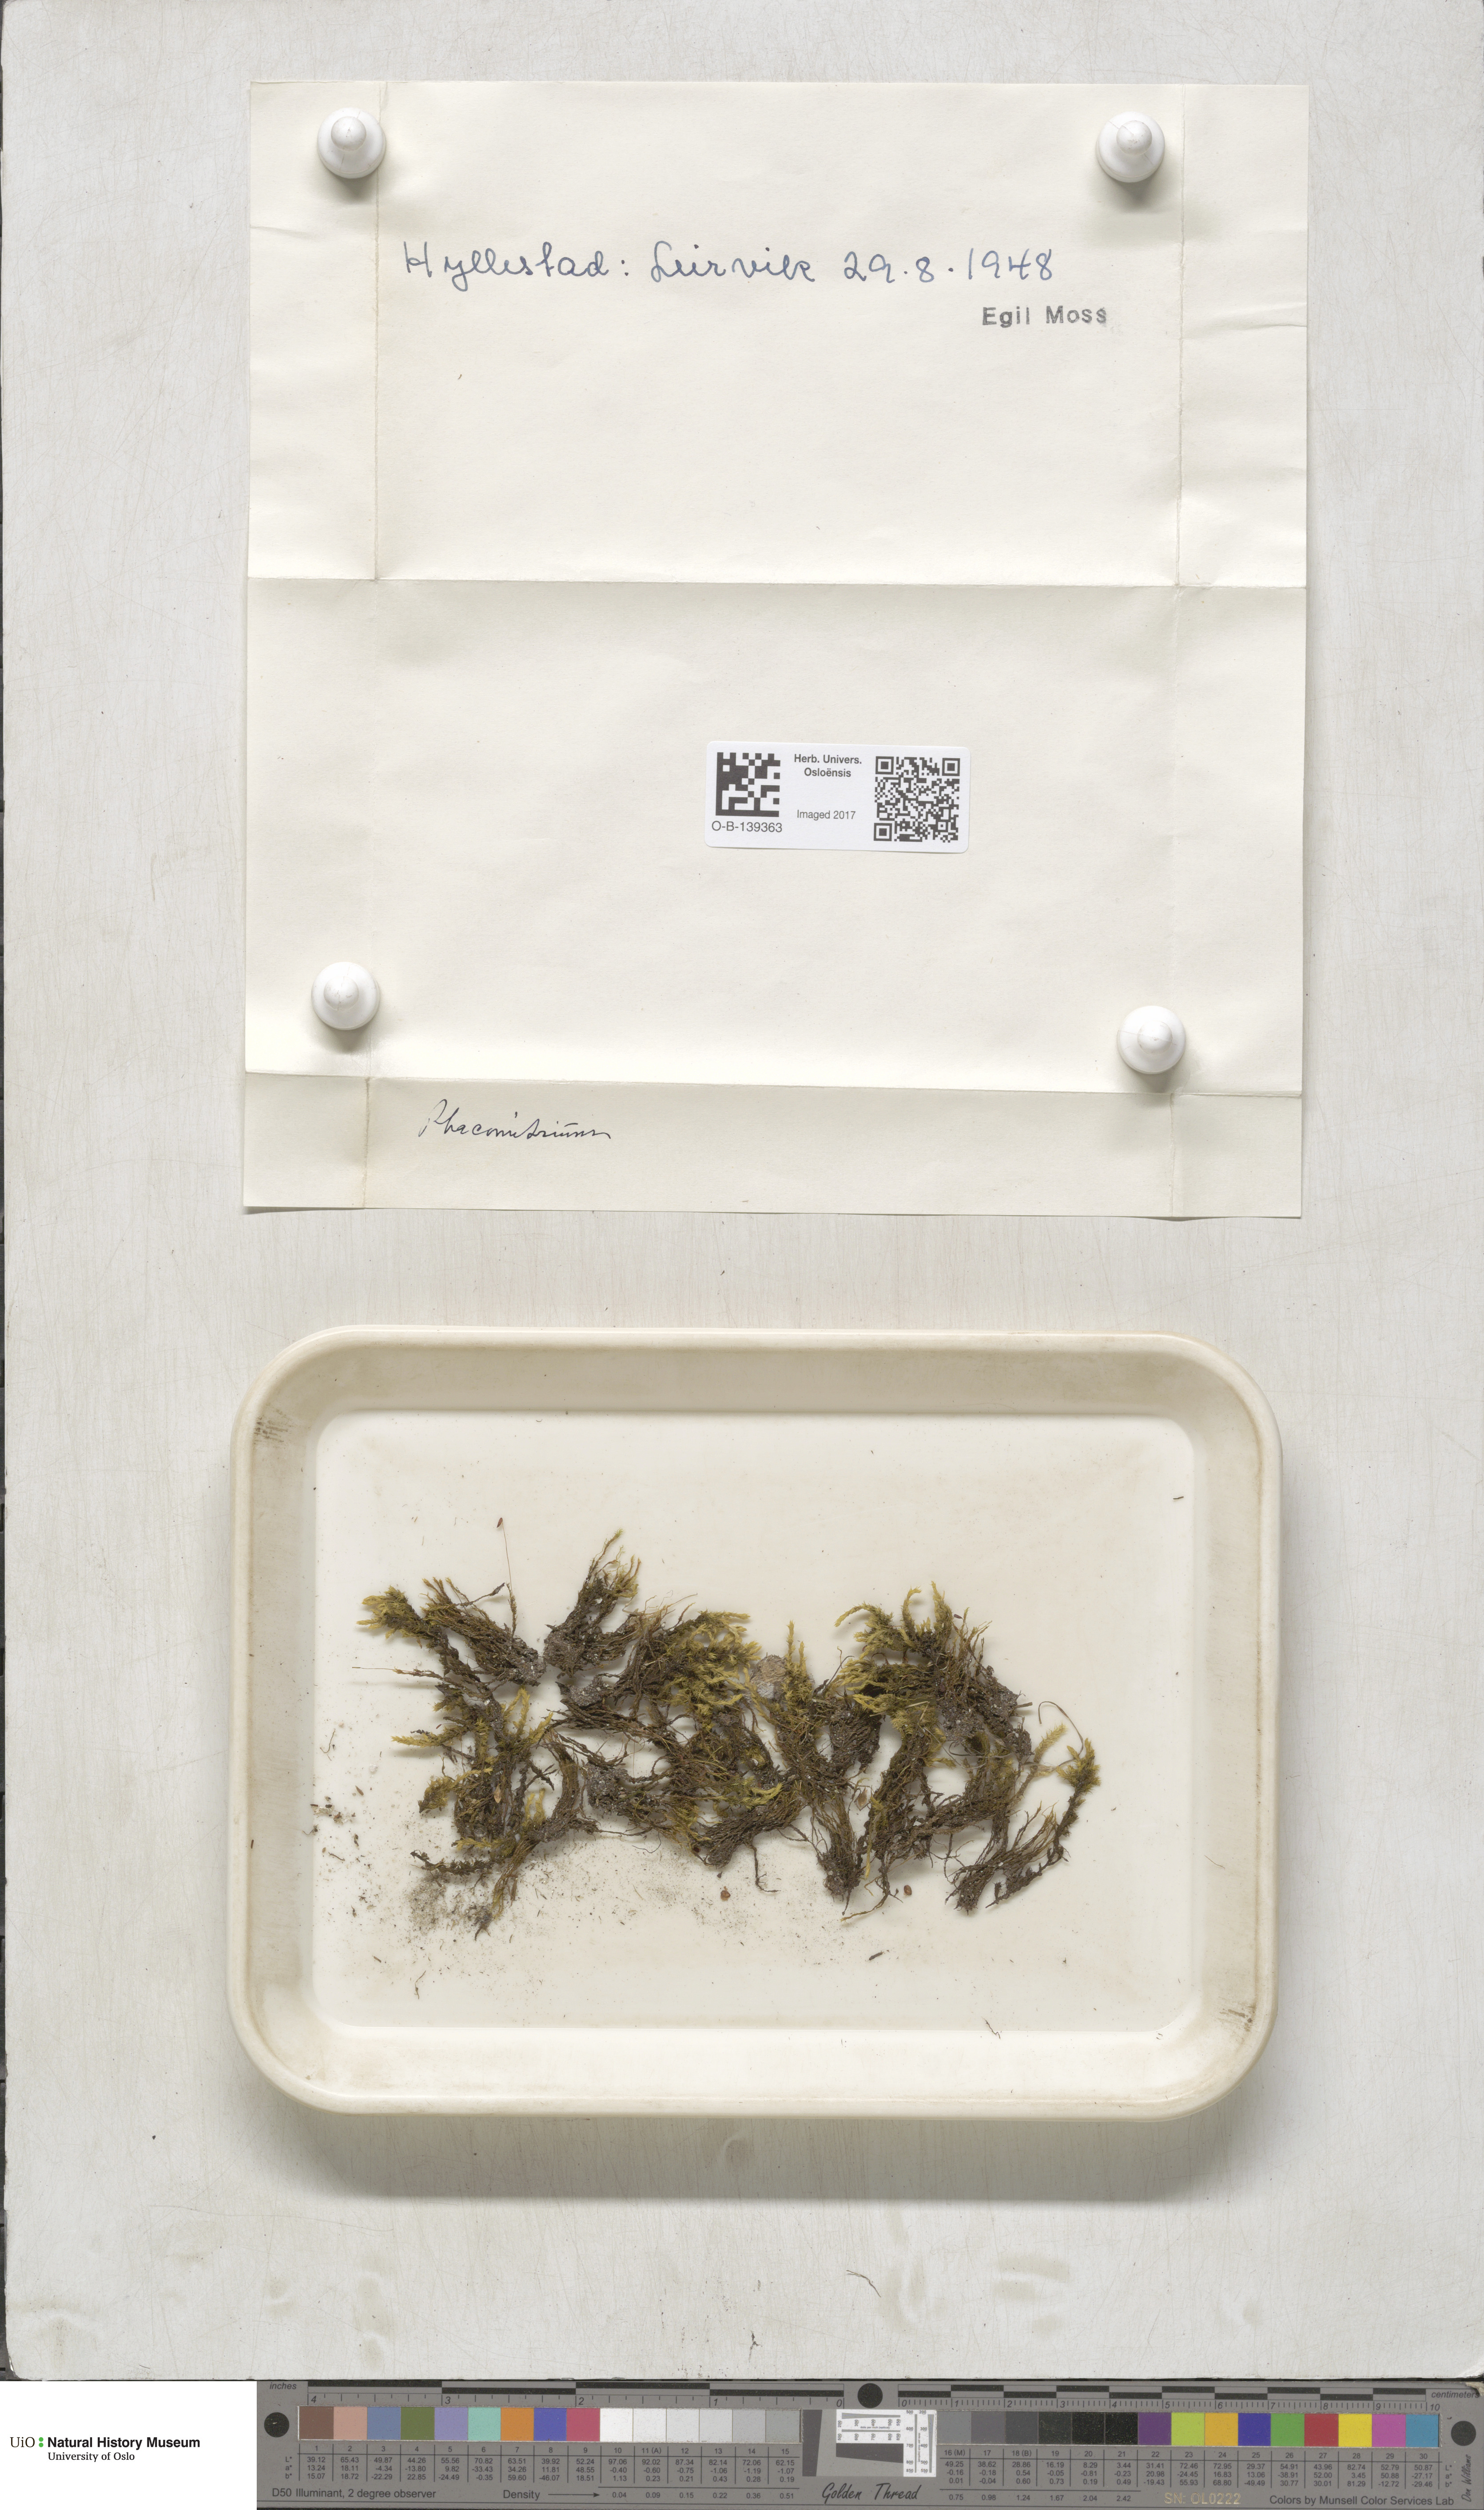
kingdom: Plantae
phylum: Bryophyta
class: Bryopsida
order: Grimmiales
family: Grimmiaceae
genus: Racomitrium
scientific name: Racomitrium
